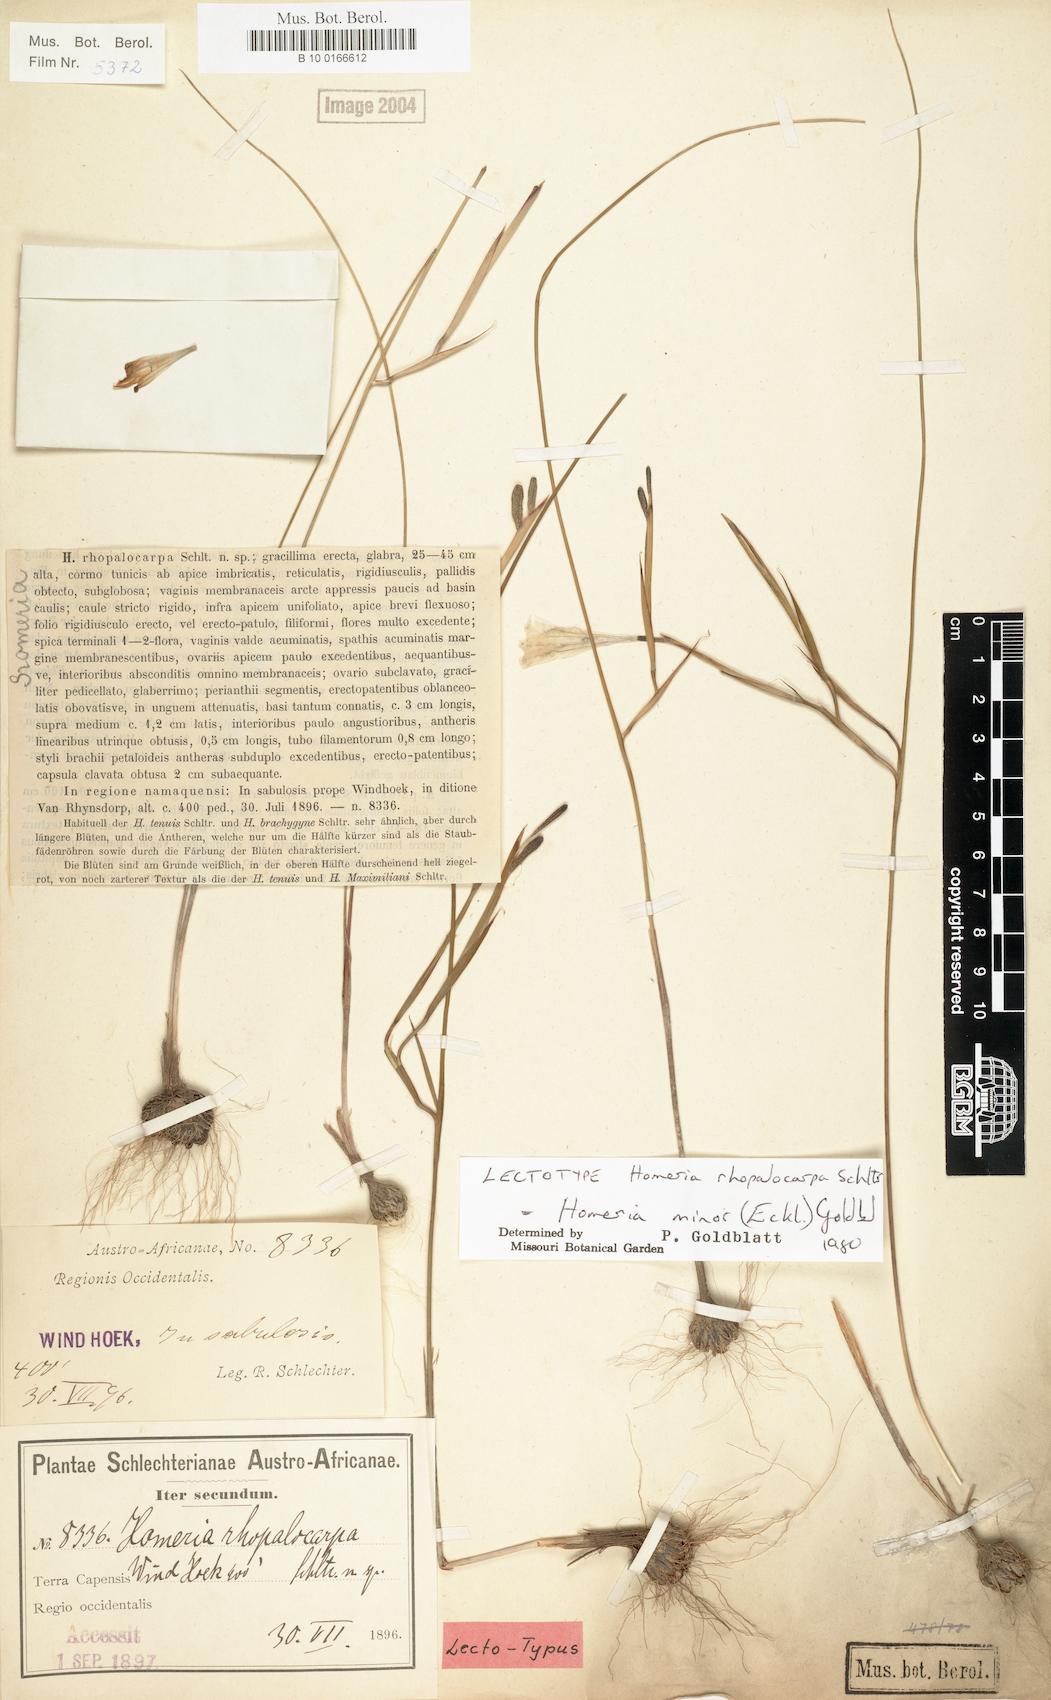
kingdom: Plantae
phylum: Tracheophyta
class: Liliopsida
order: Asparagales
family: Iridaceae
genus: Moraea
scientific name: Moraea minor
